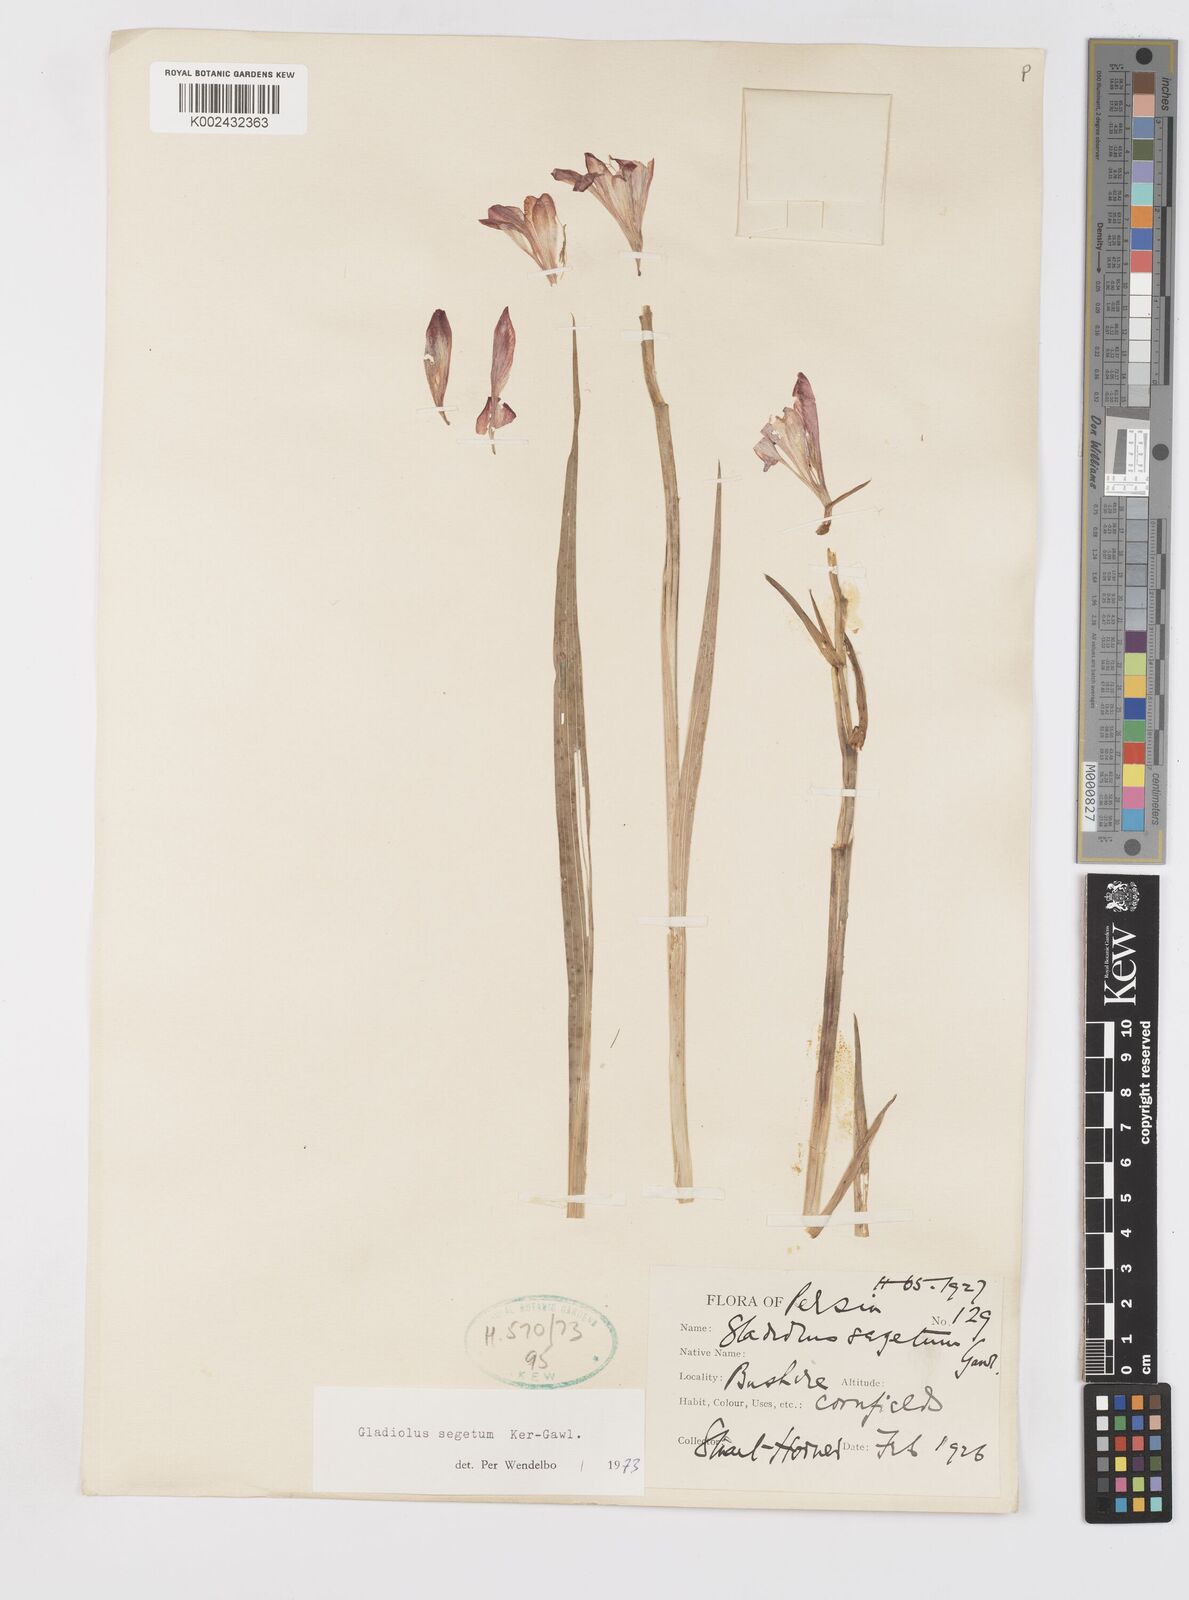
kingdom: Plantae
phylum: Tracheophyta
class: Liliopsida
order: Asparagales
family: Iridaceae
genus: Gladiolus
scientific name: Gladiolus italicus
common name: Field gladiolus
